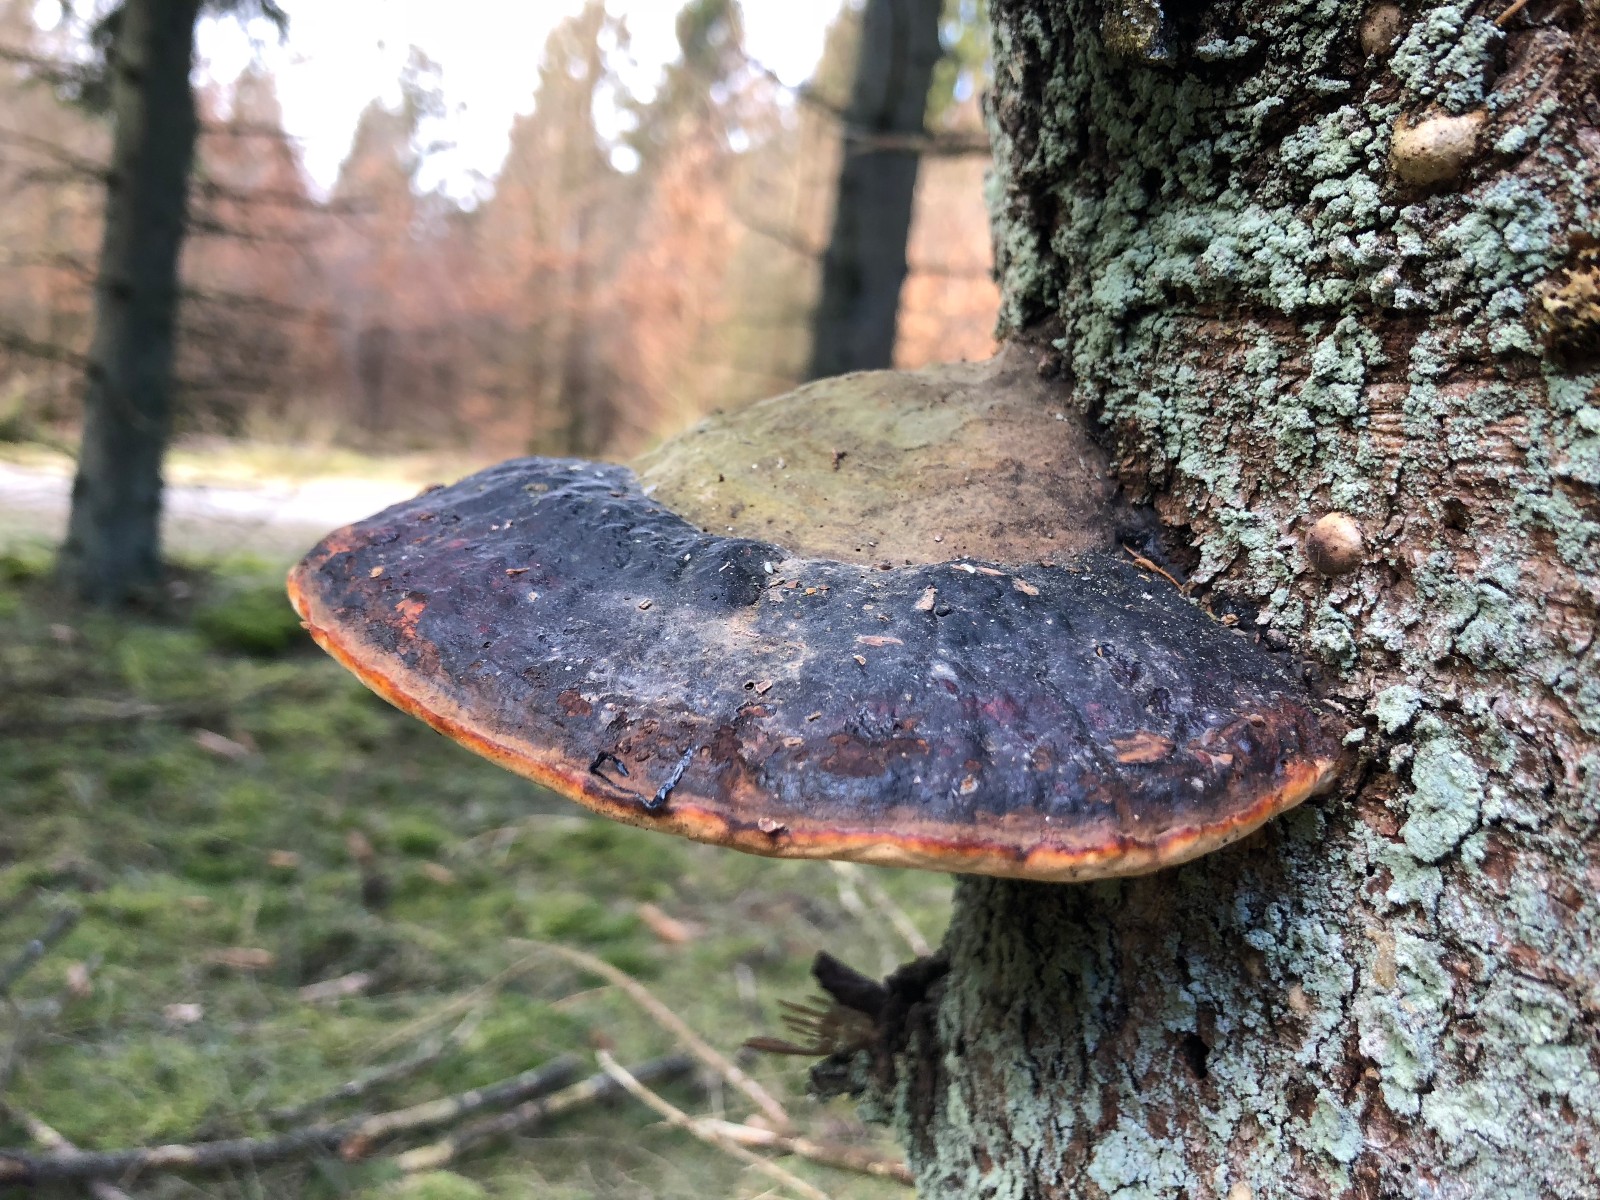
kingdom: Fungi
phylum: Basidiomycota
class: Agaricomycetes
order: Polyporales
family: Fomitopsidaceae
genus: Fomitopsis
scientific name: Fomitopsis pinicola
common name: randbæltet hovporesvamp
